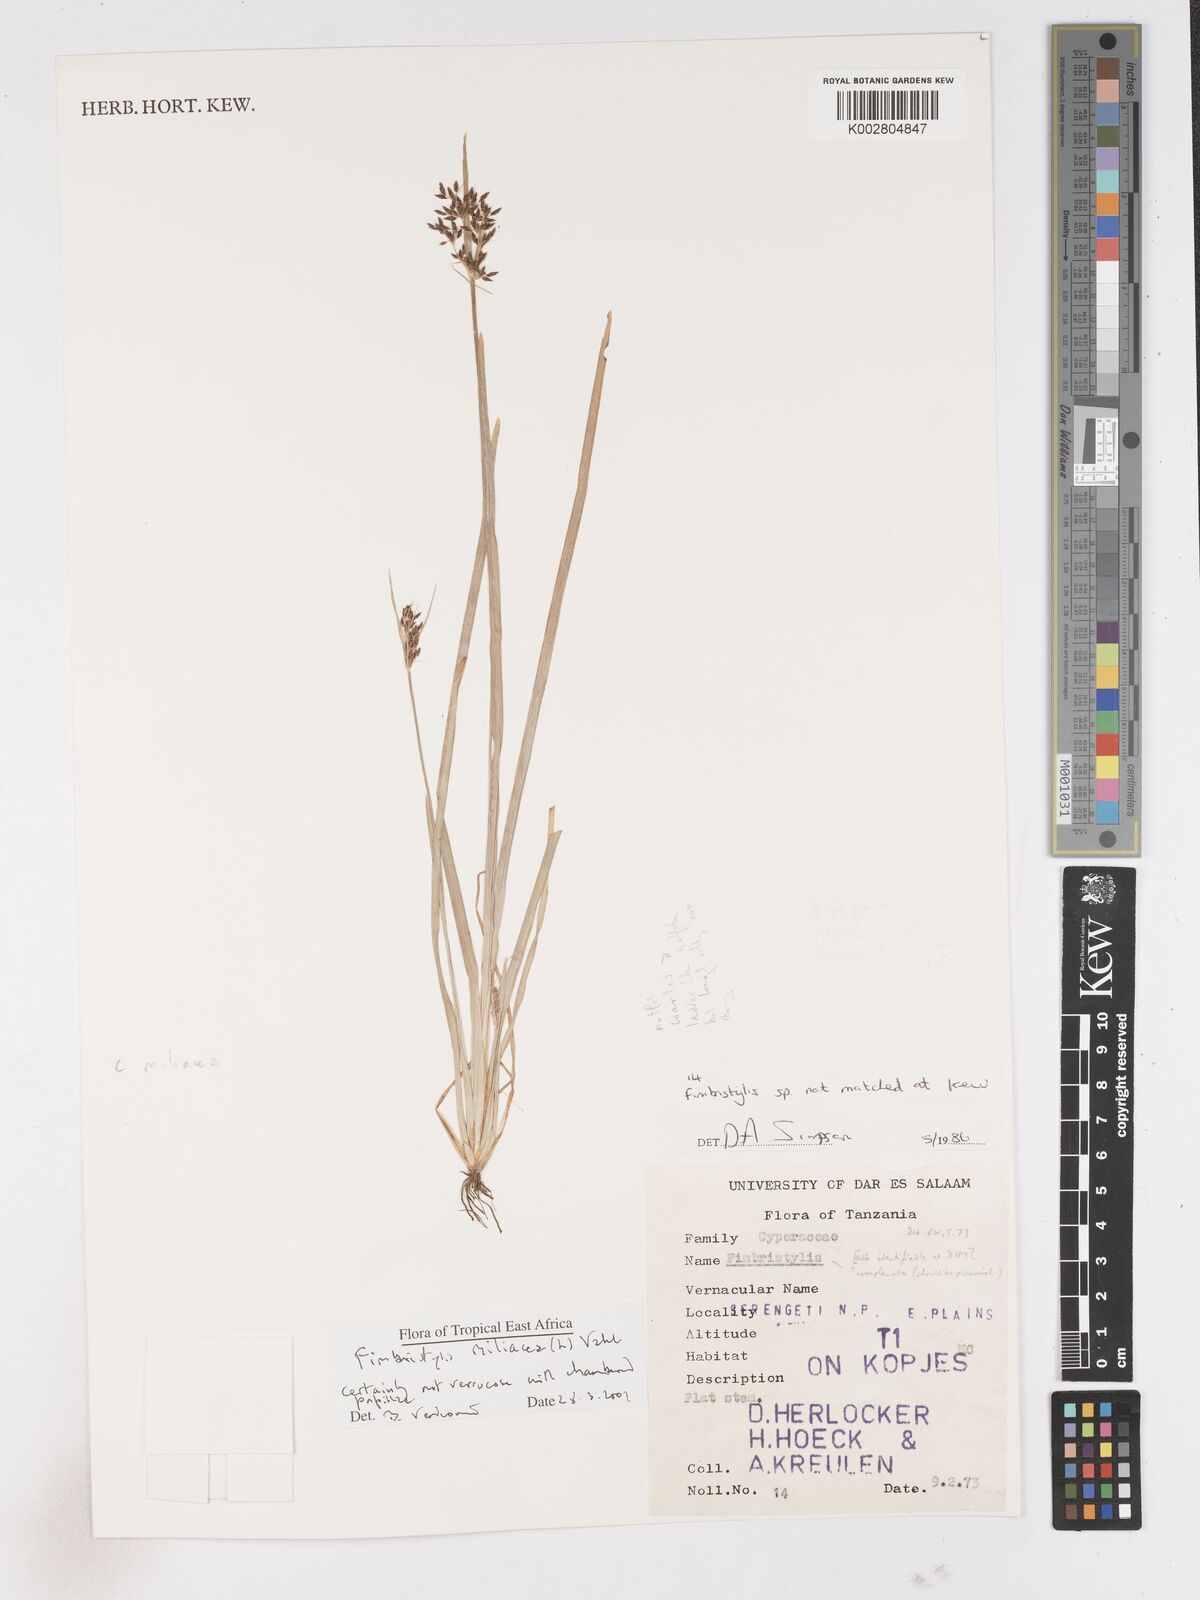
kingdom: Plantae
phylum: Tracheophyta
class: Liliopsida
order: Poales
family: Cyperaceae
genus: Fimbristylis
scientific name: Fimbristylis quinquangularis
